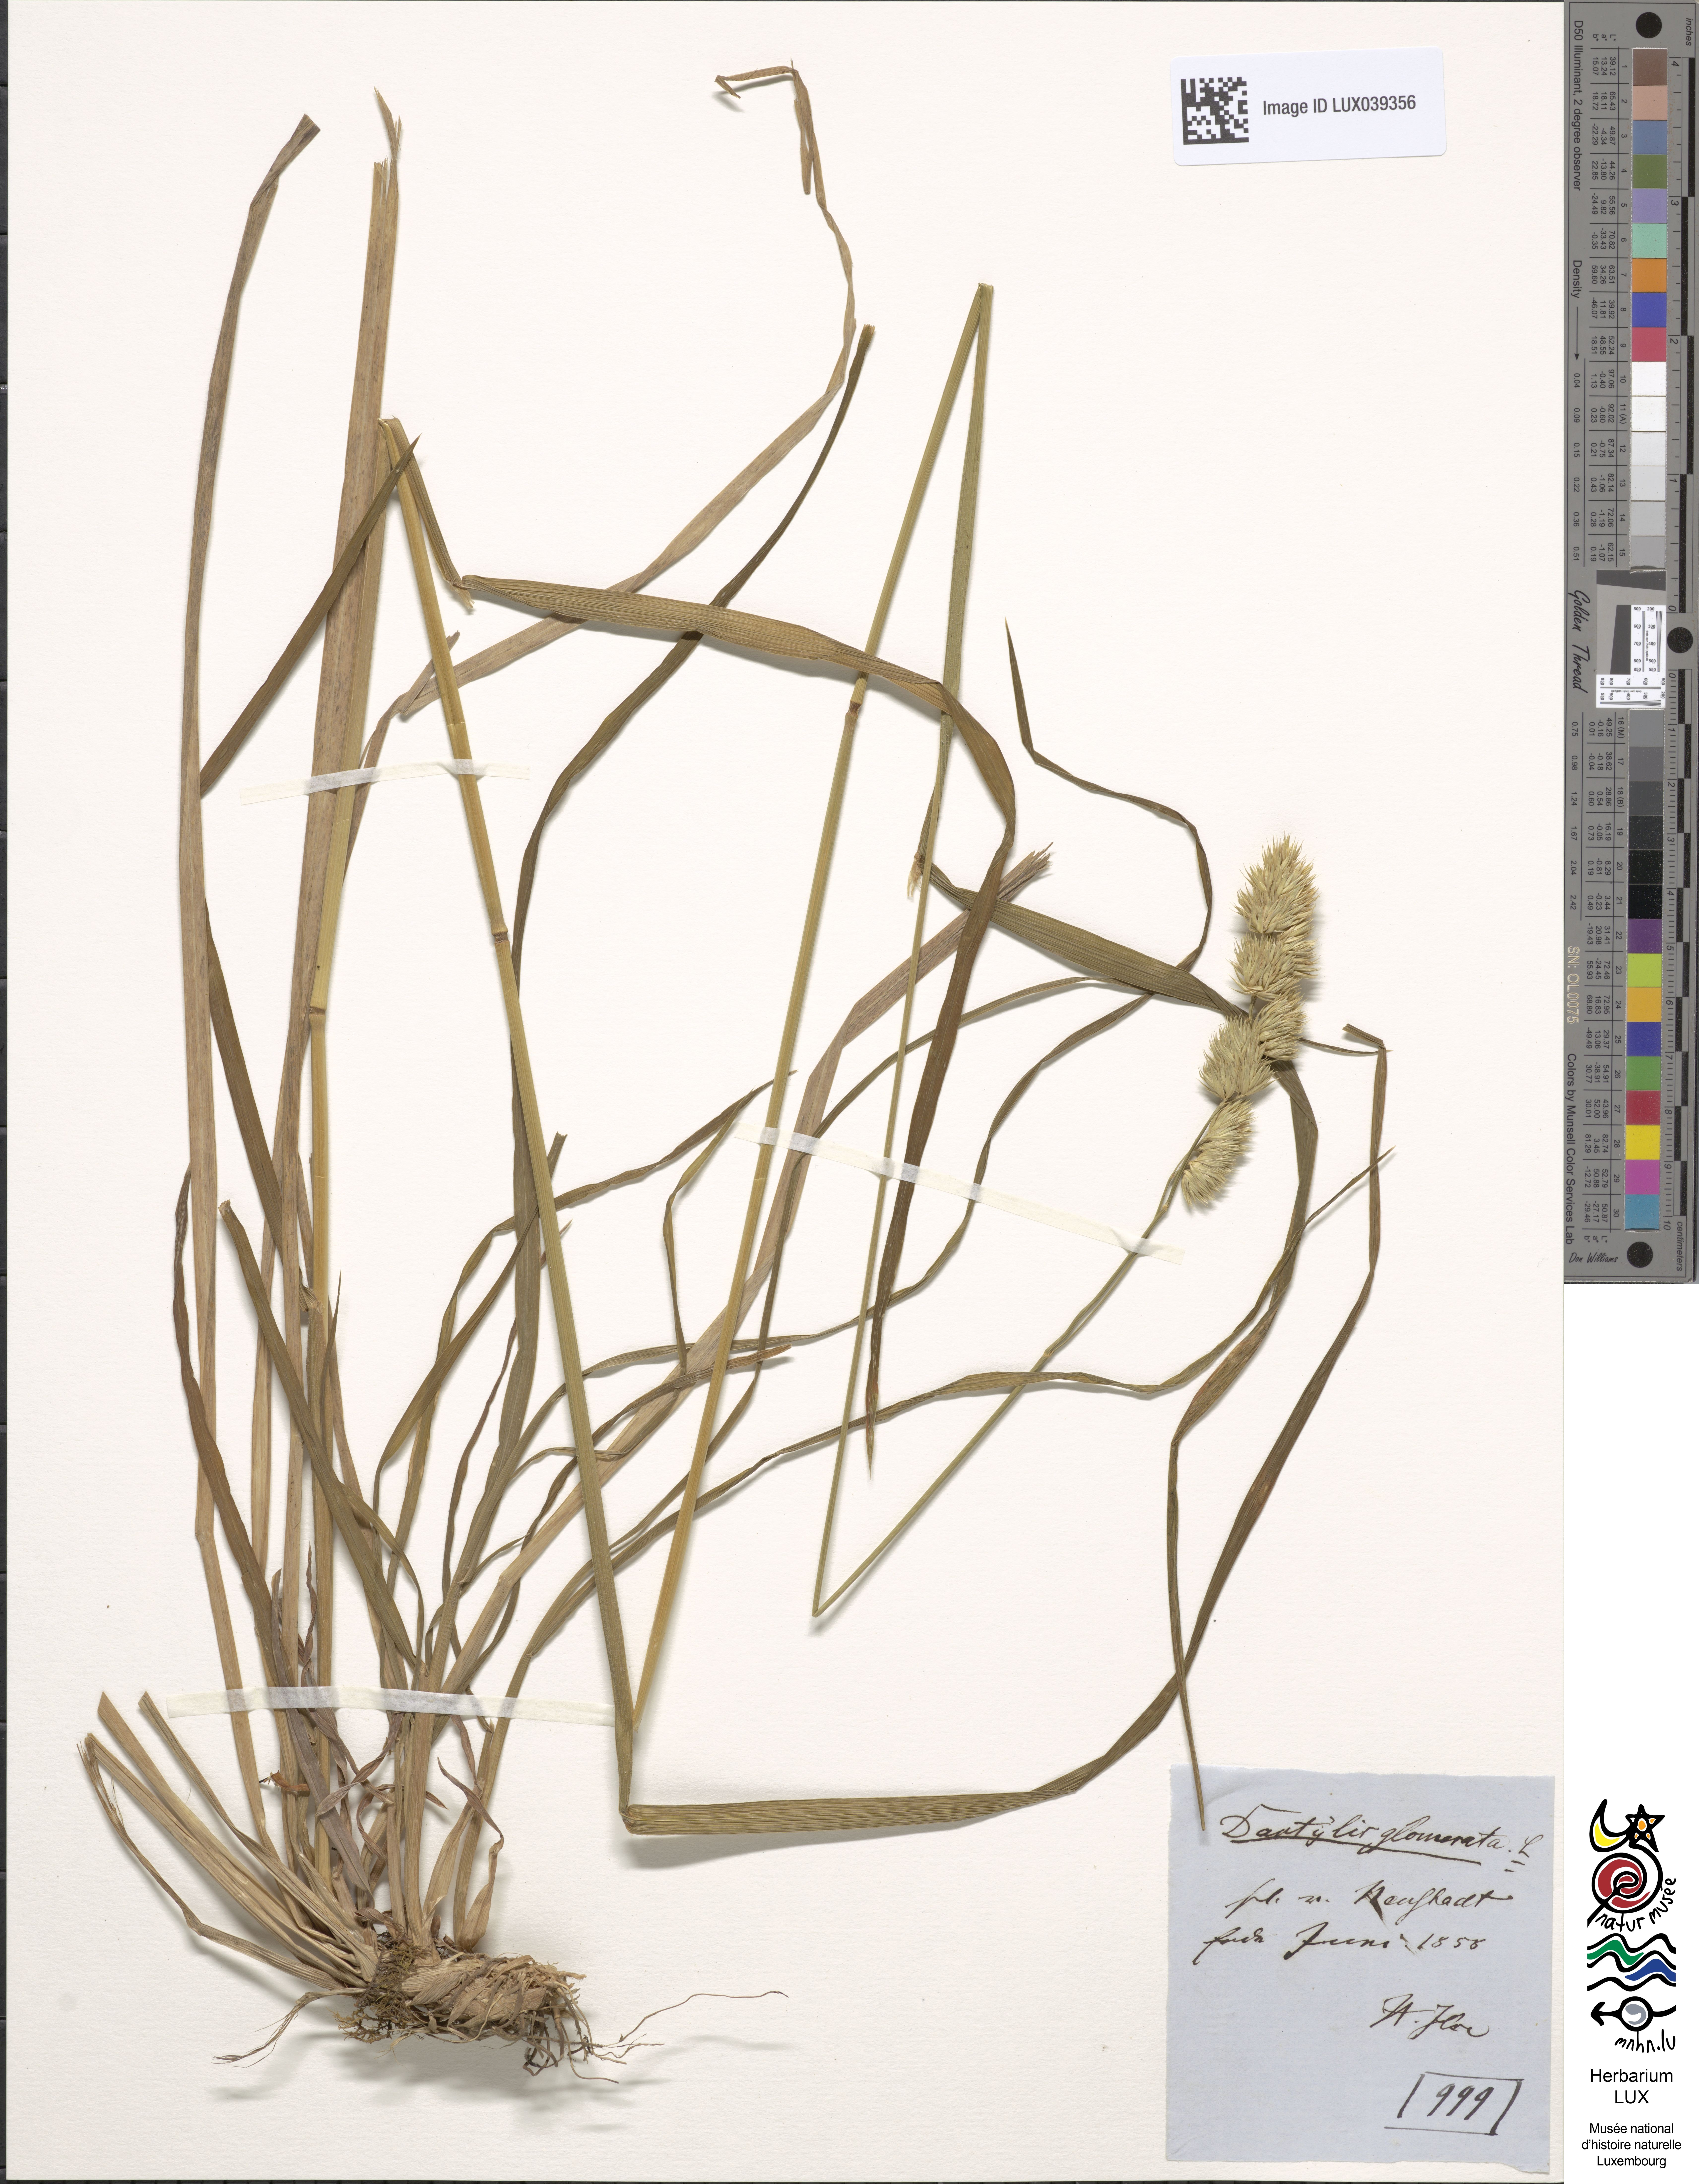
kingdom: Plantae
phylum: Tracheophyta
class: Liliopsida
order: Poales
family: Poaceae
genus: Dactylis
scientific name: Dactylis glomerata
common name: Orchardgrass
